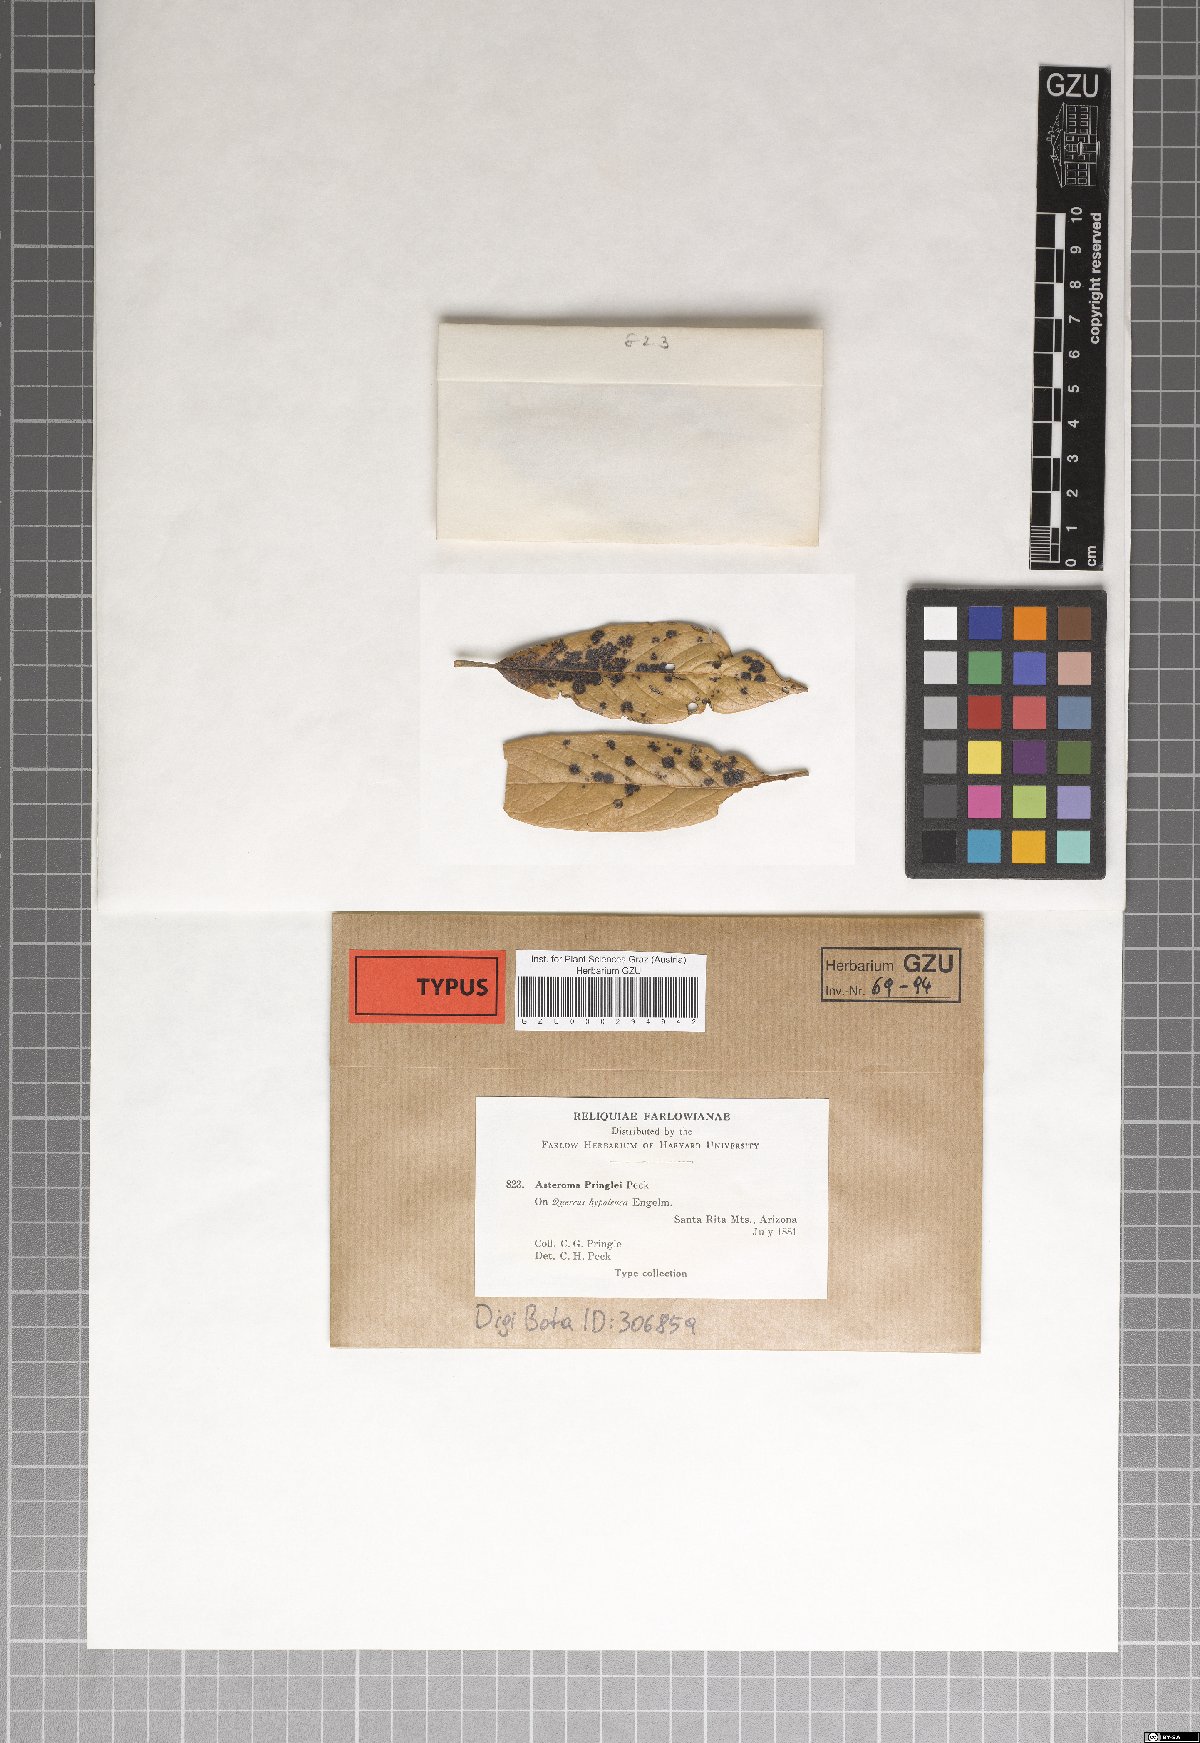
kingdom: Fungi
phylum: Ascomycota
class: Sordariomycetes
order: Diaporthales
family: Gnomoniaceae
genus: Asteroma
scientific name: Asteroma
